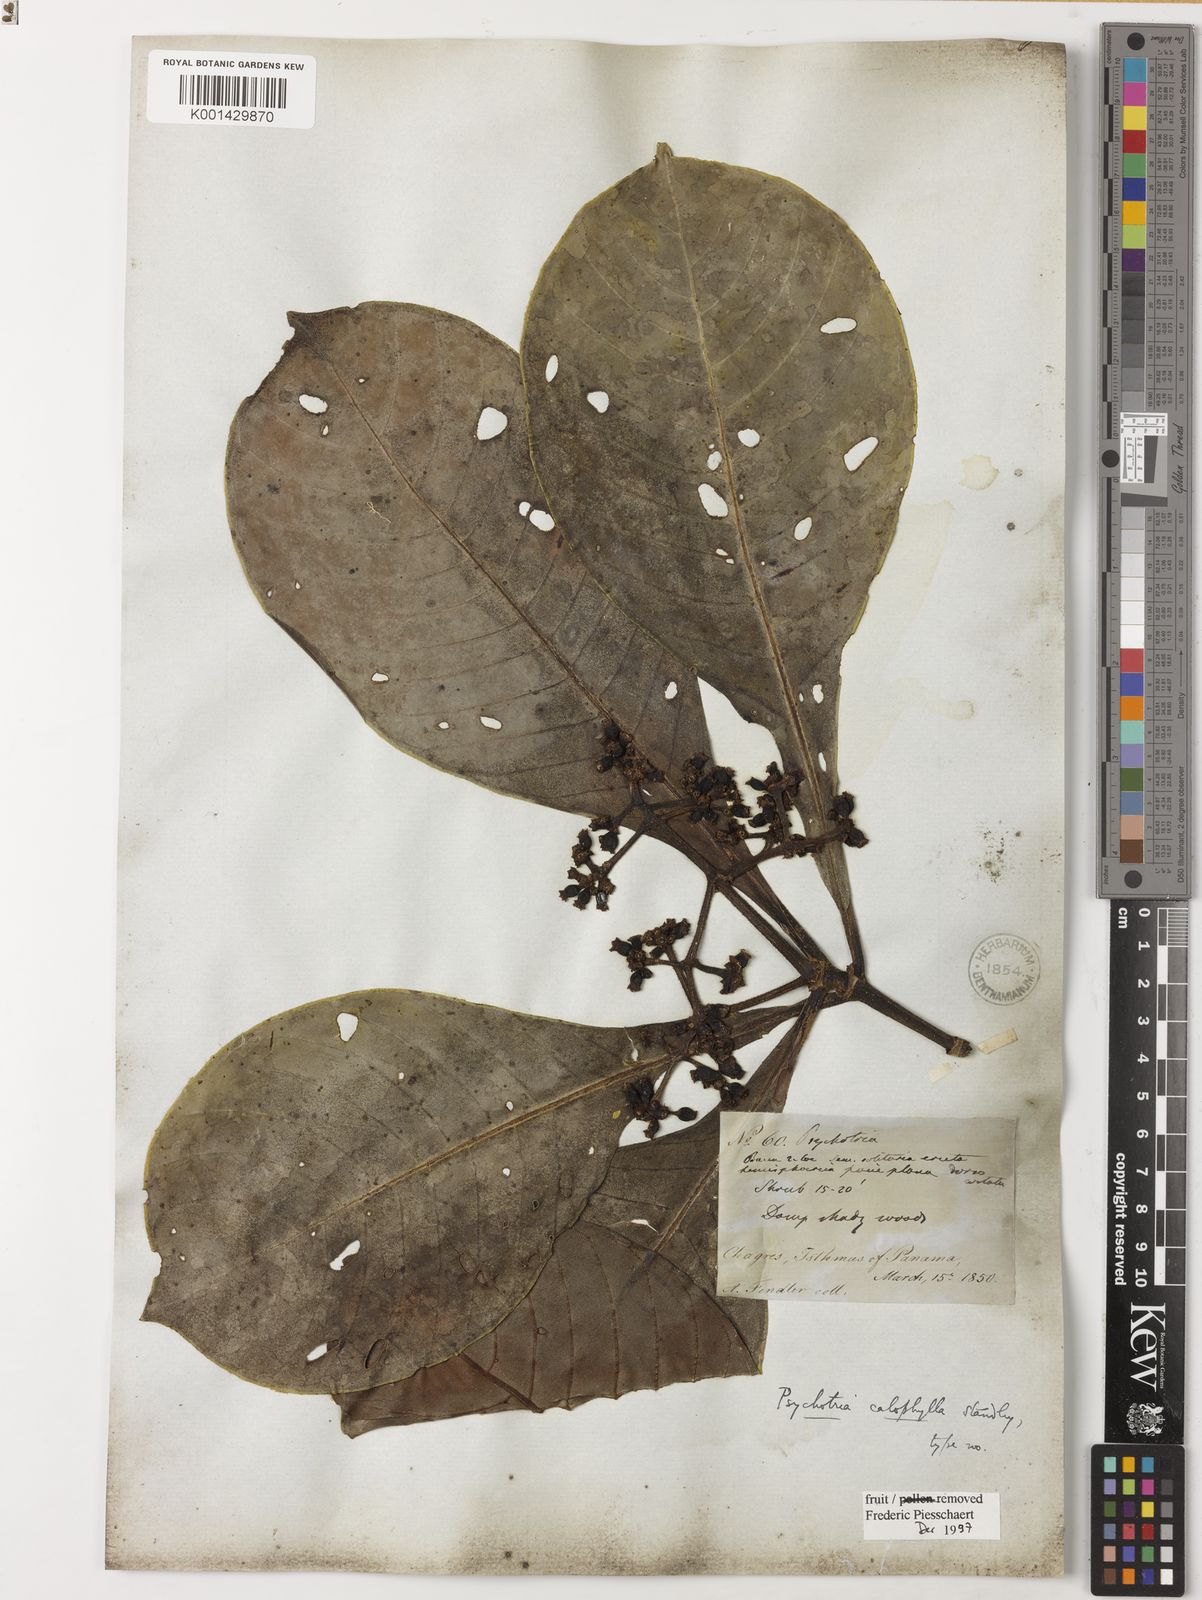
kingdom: Plantae
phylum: Tracheophyta
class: Magnoliopsida
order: Gentianales
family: Rubiaceae
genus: Psychotria
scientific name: Psychotria calophylla
